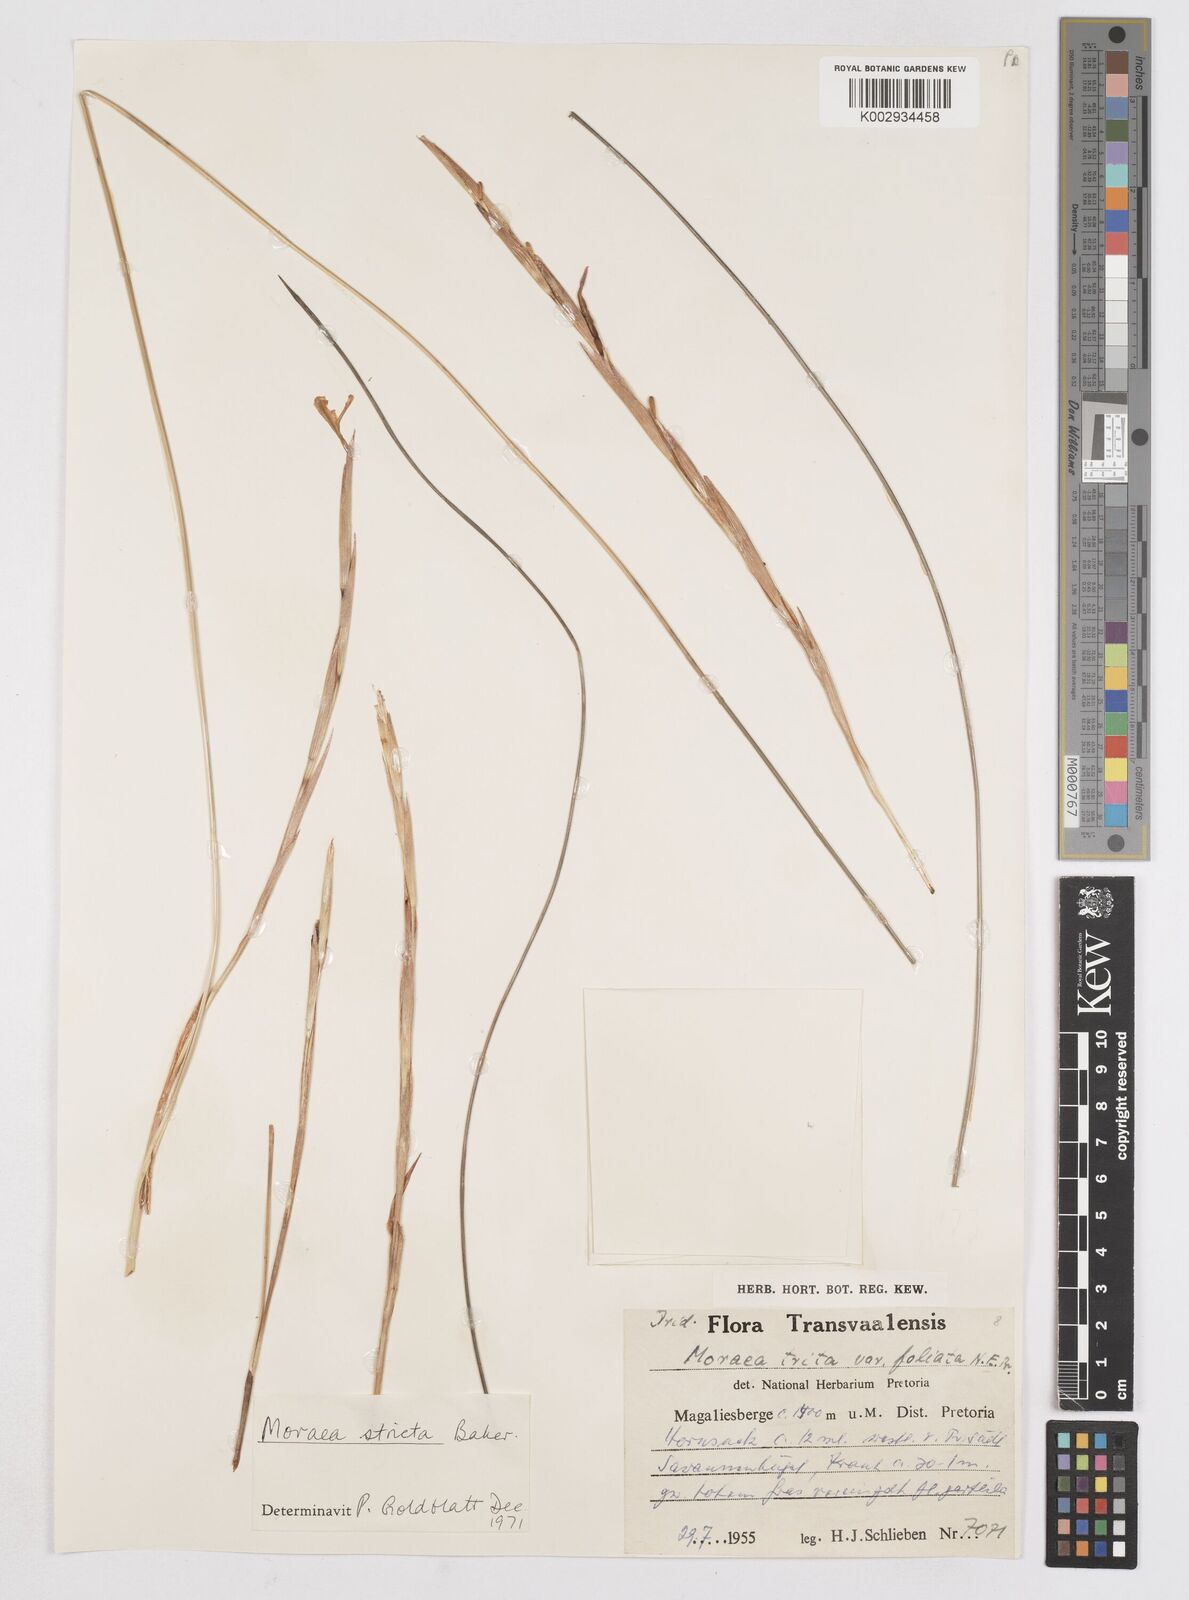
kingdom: Plantae
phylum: Tracheophyta
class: Liliopsida
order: Asparagales
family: Iridaceae
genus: Moraea
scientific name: Moraea stricta
